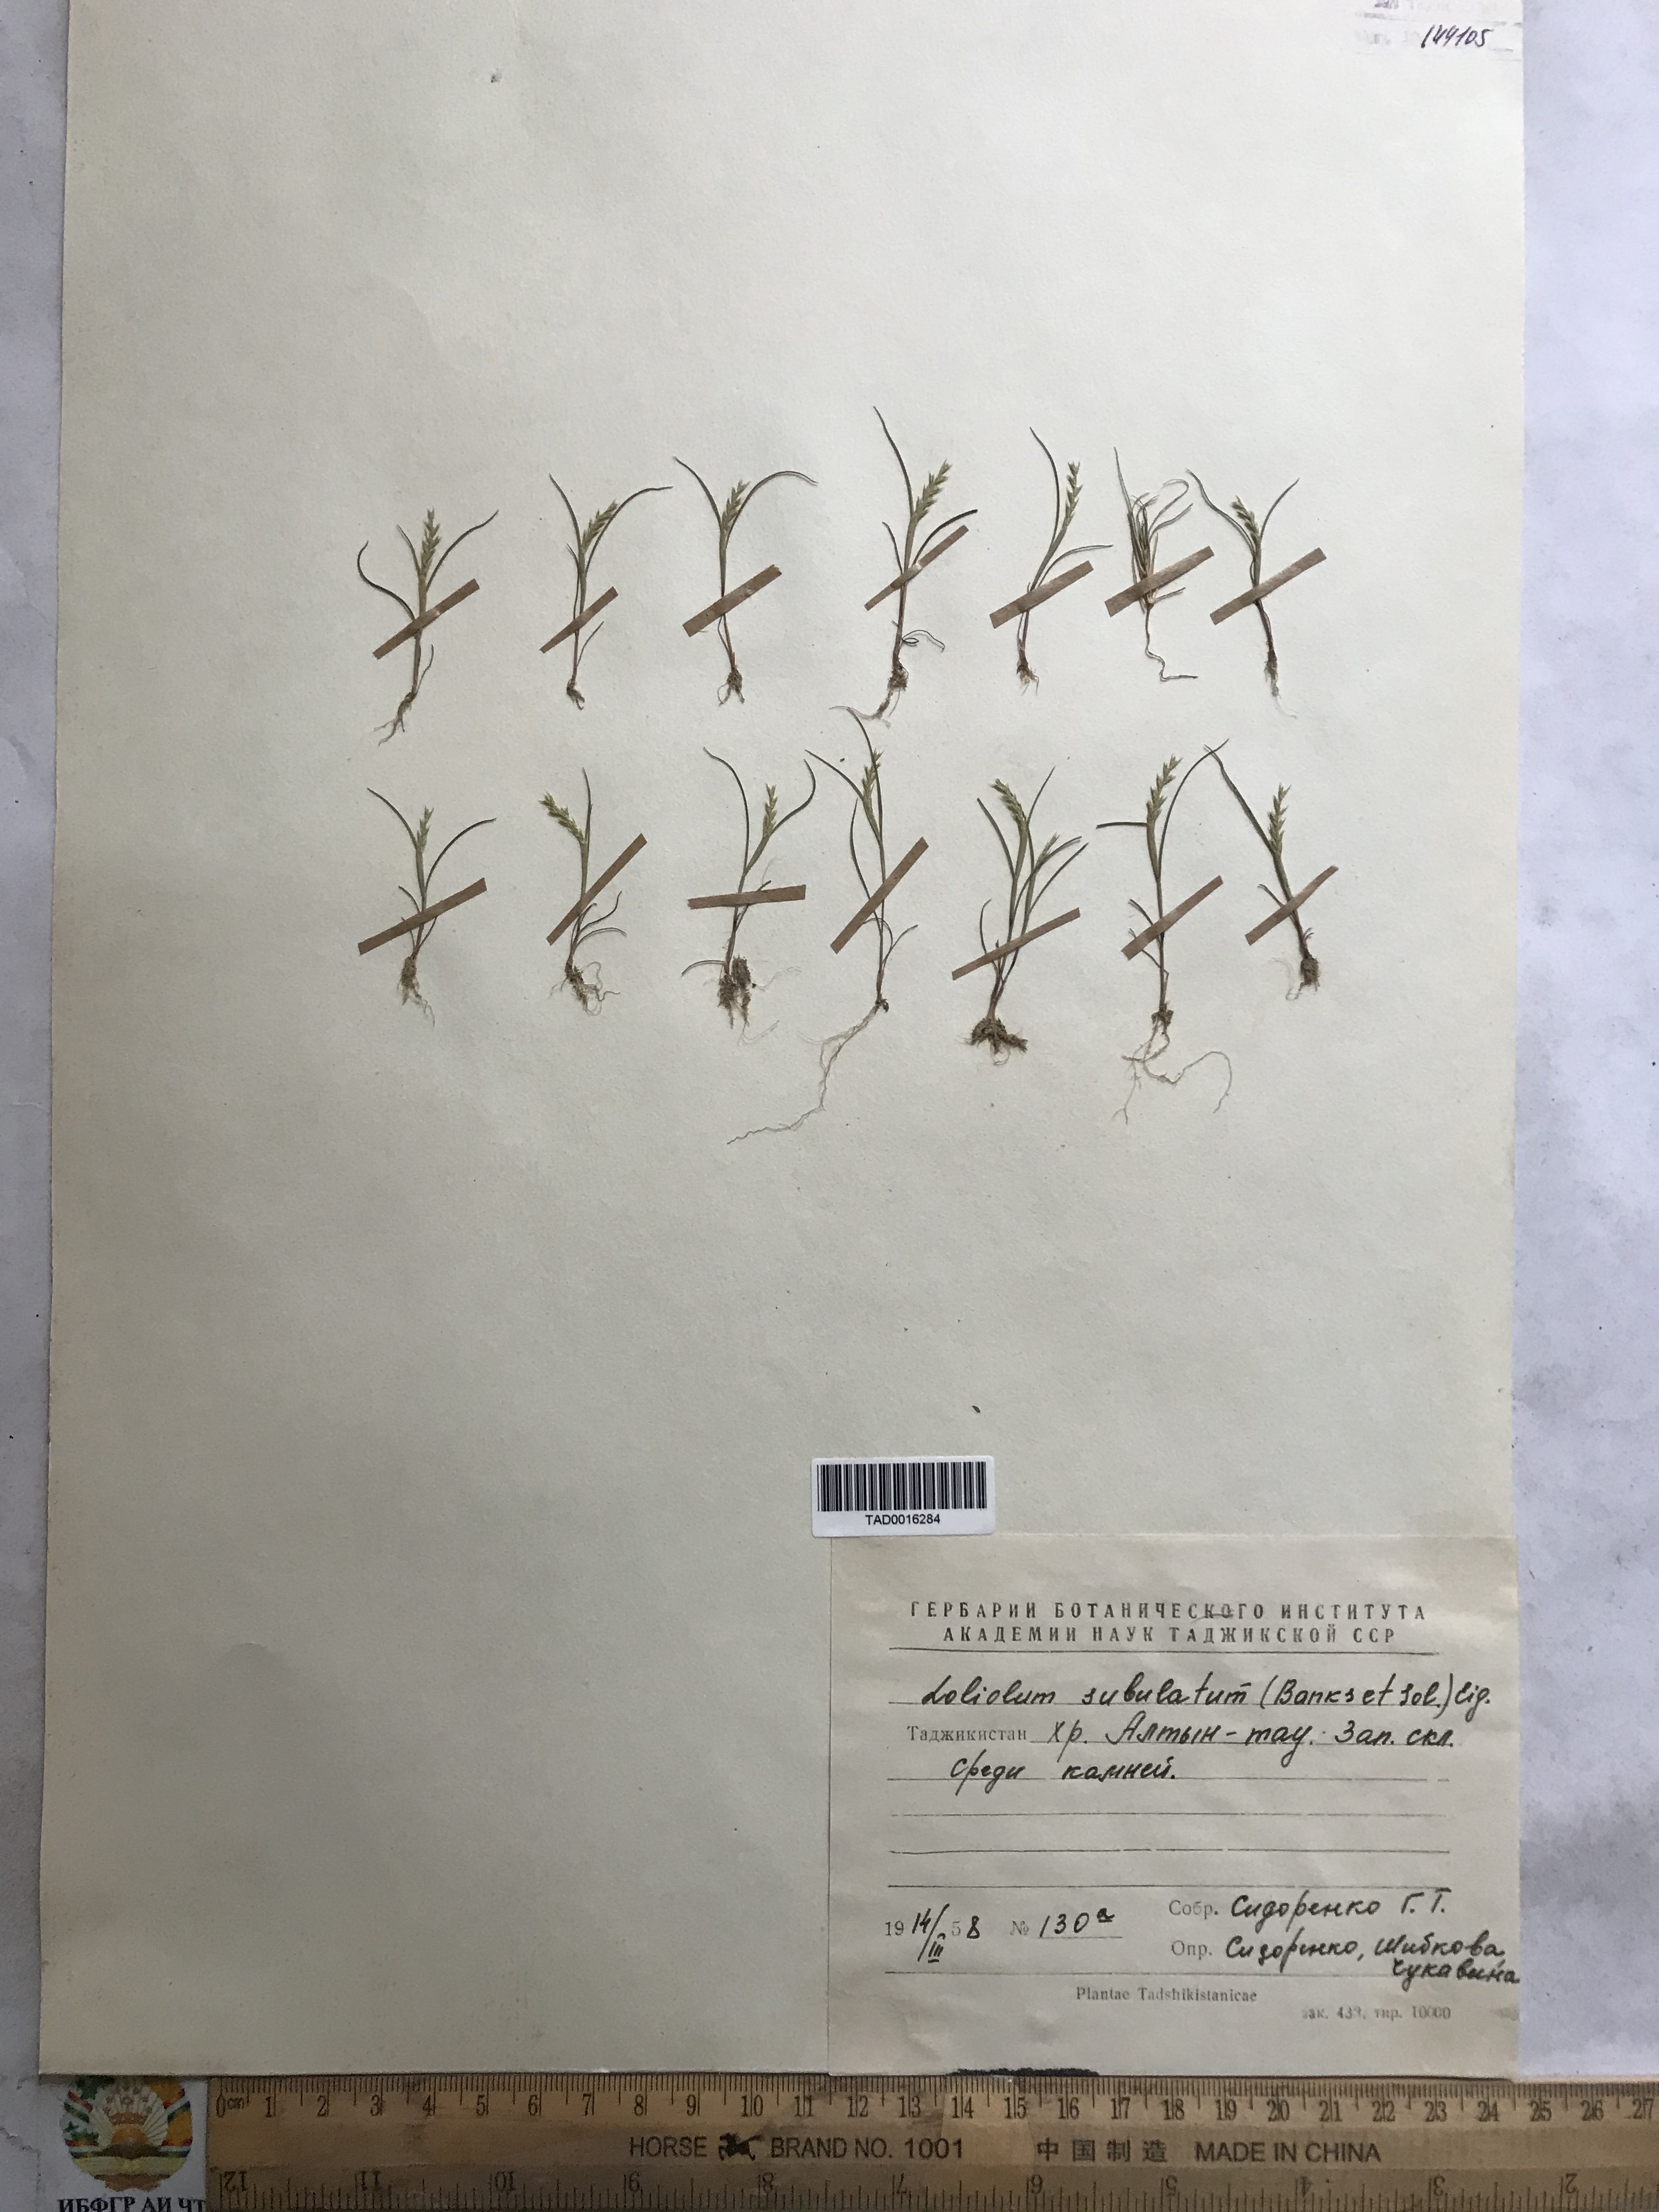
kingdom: Plantae
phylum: Tracheophyta
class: Liliopsida
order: Poales
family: Poaceae
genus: Festuca
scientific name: Festuca orientalis
